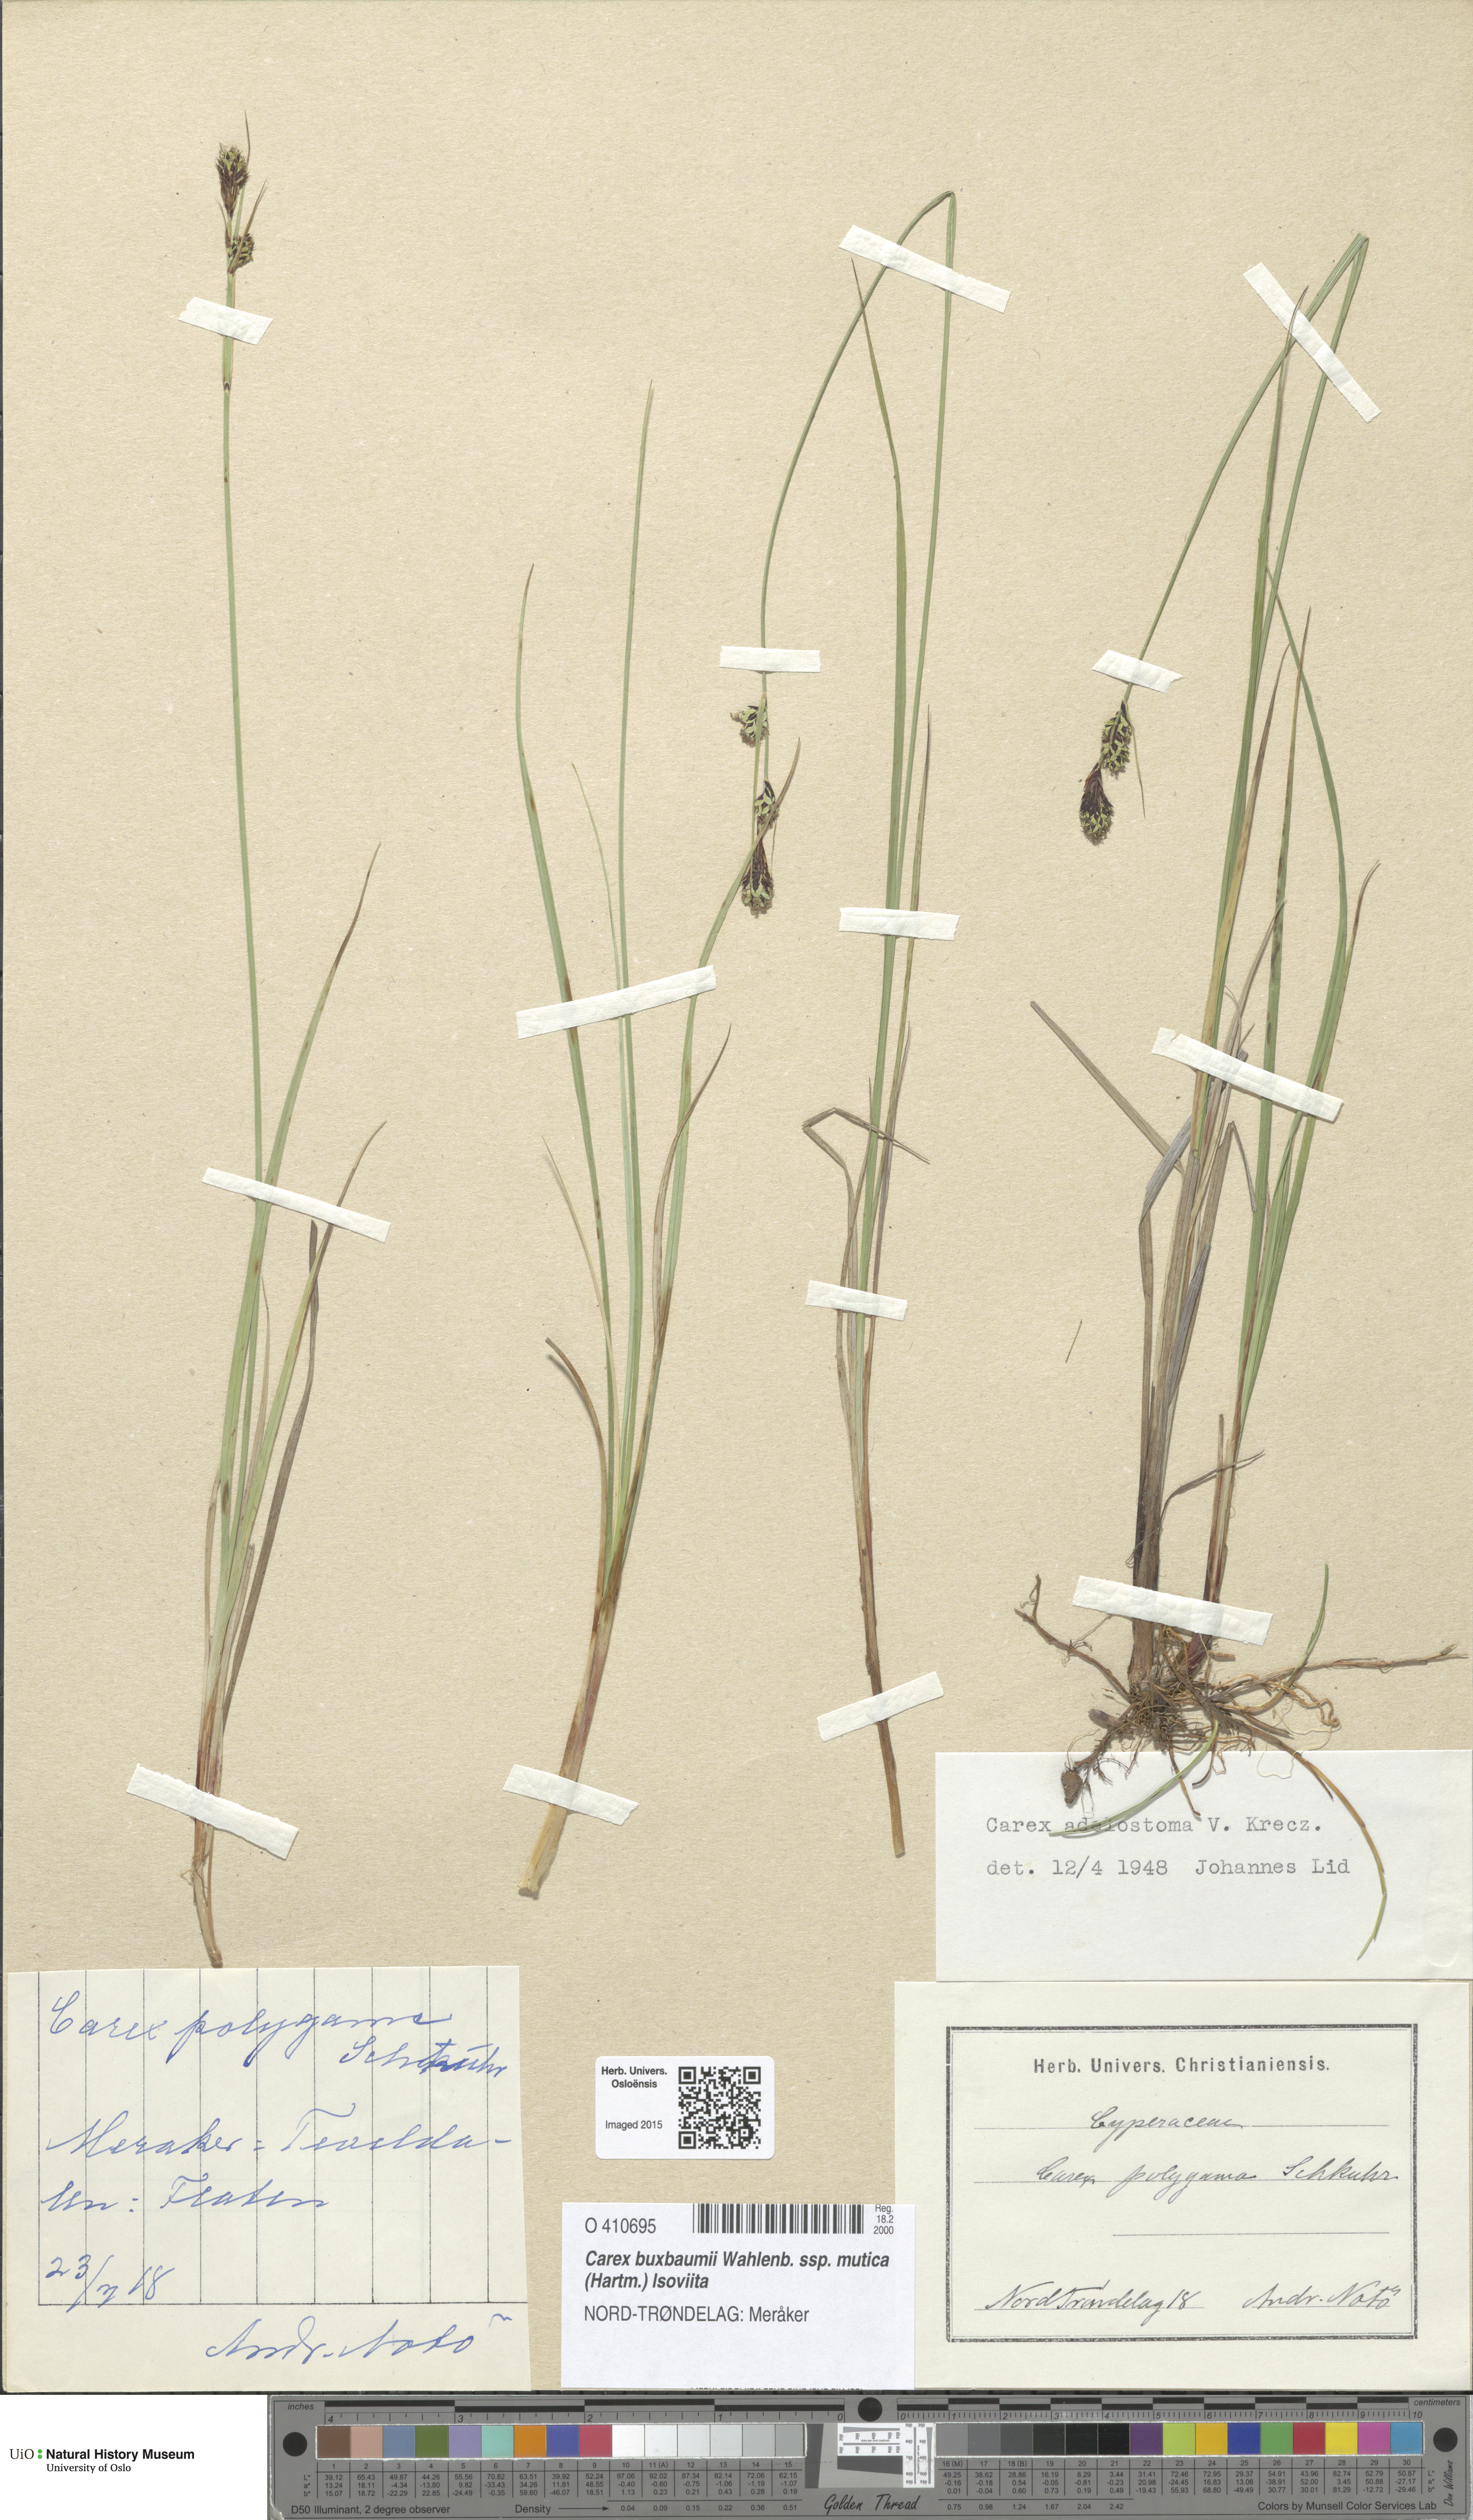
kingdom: Plantae
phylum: Tracheophyta
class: Liliopsida
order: Poales
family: Cyperaceae
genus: Carex
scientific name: Carex adelostoma
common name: Circumpolar sedge
